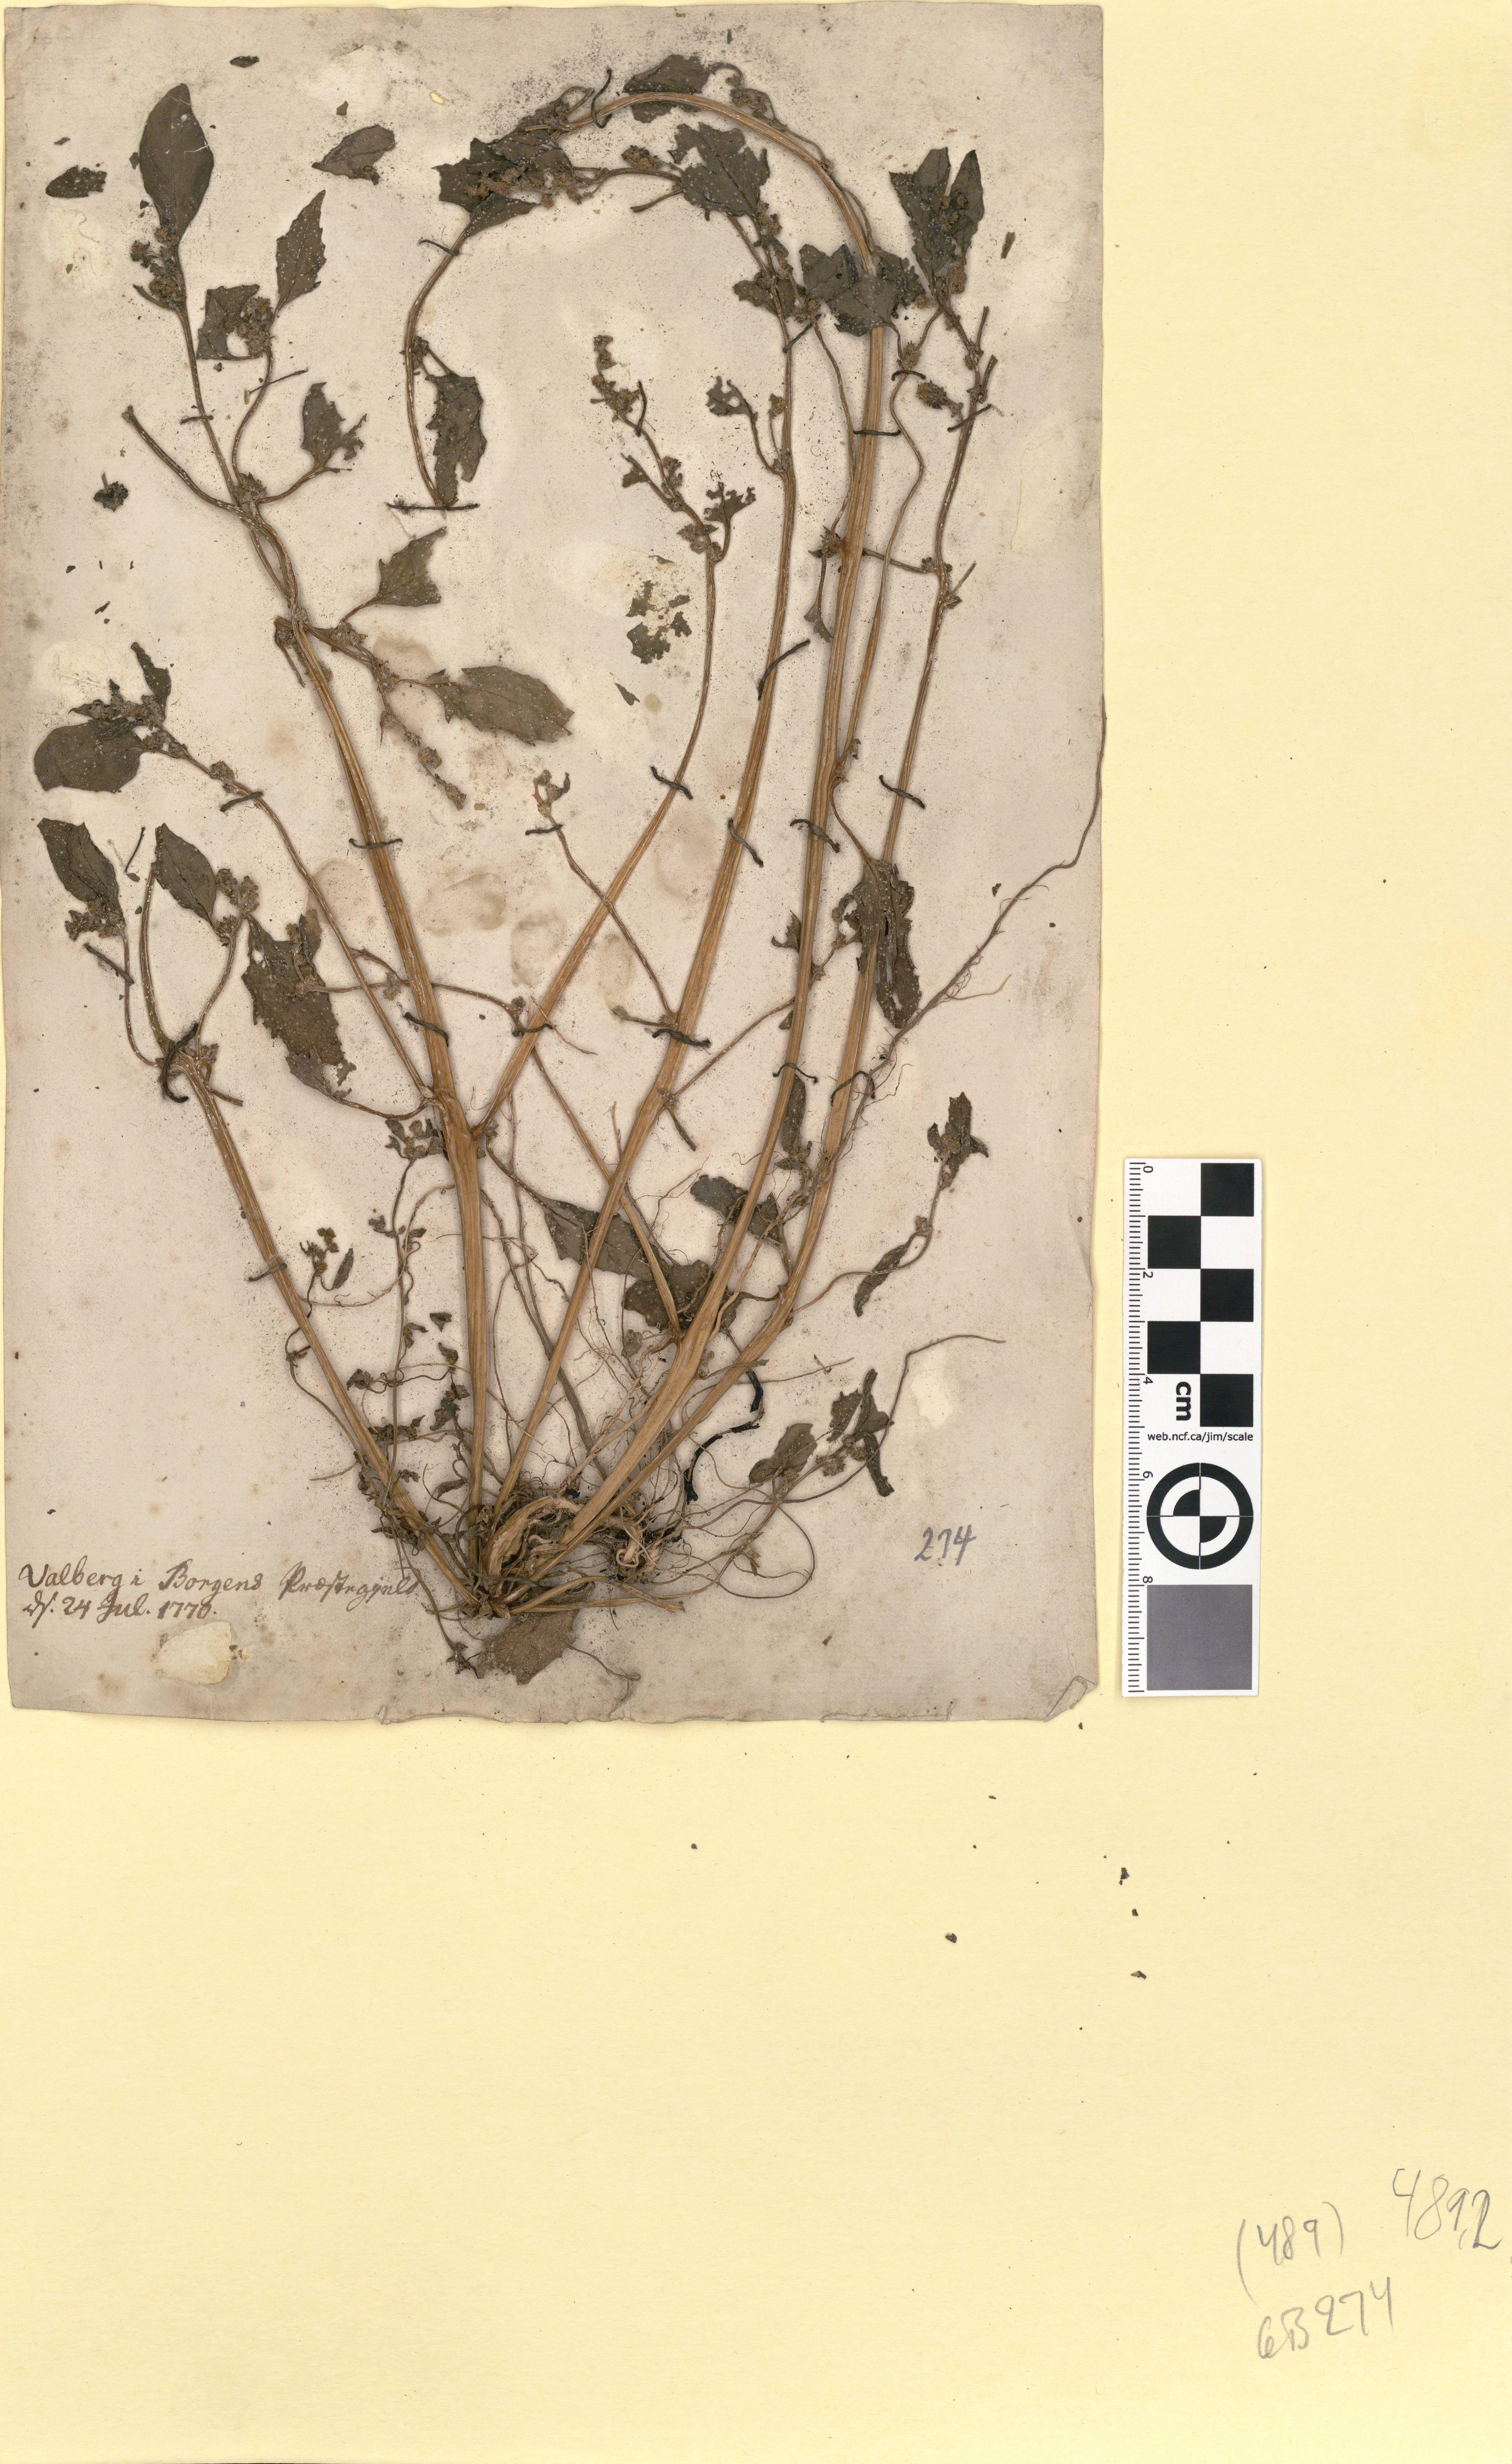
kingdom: Plantae
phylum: Tracheophyta
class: Magnoliopsida
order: Caryophyllales
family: Amaranthaceae
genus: Atriplex
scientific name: Atriplex patula
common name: Common orache
